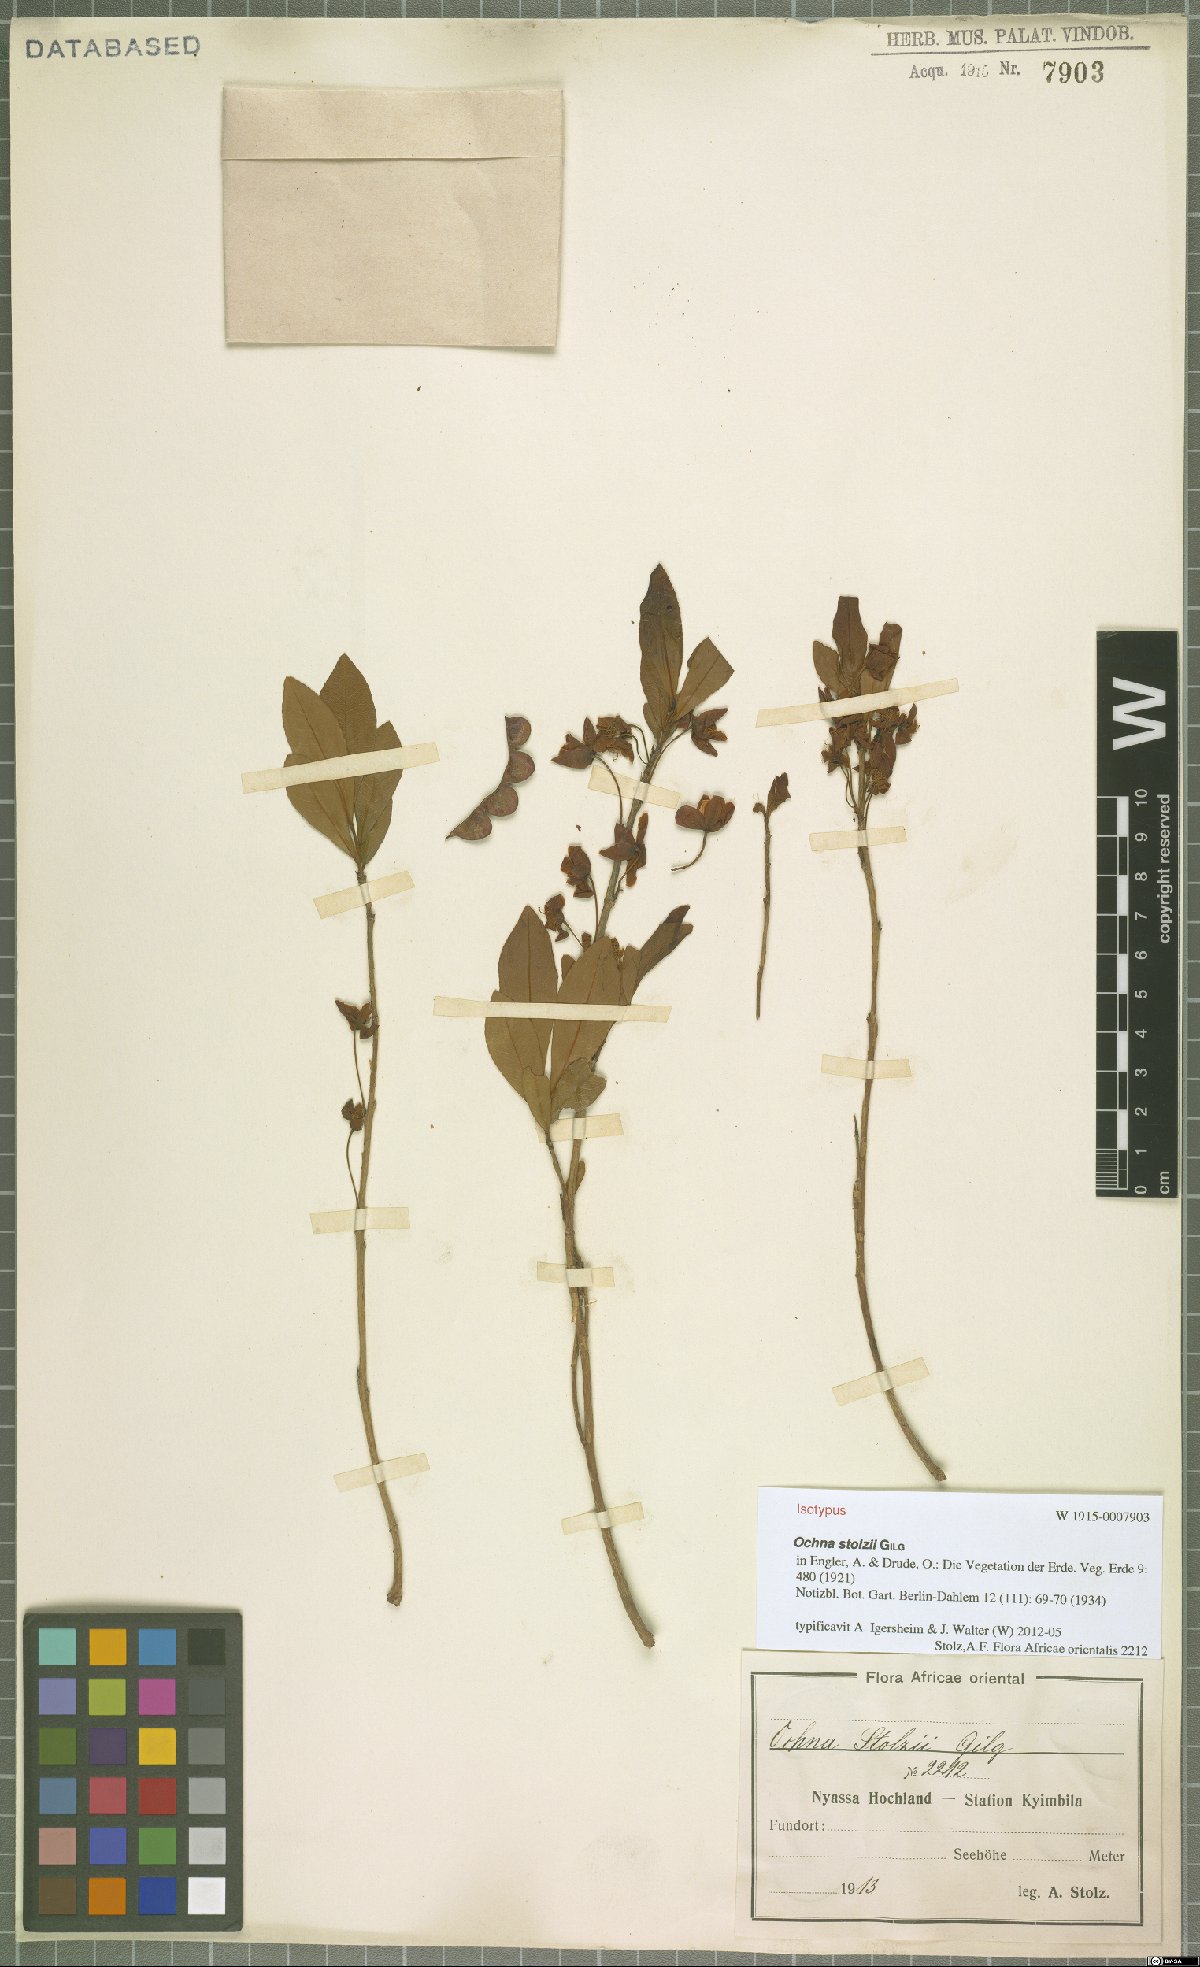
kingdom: Plantae
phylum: Tracheophyta
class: Magnoliopsida
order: Malpighiales
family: Ochnaceae
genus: Ochna
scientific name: Ochna stolzii
